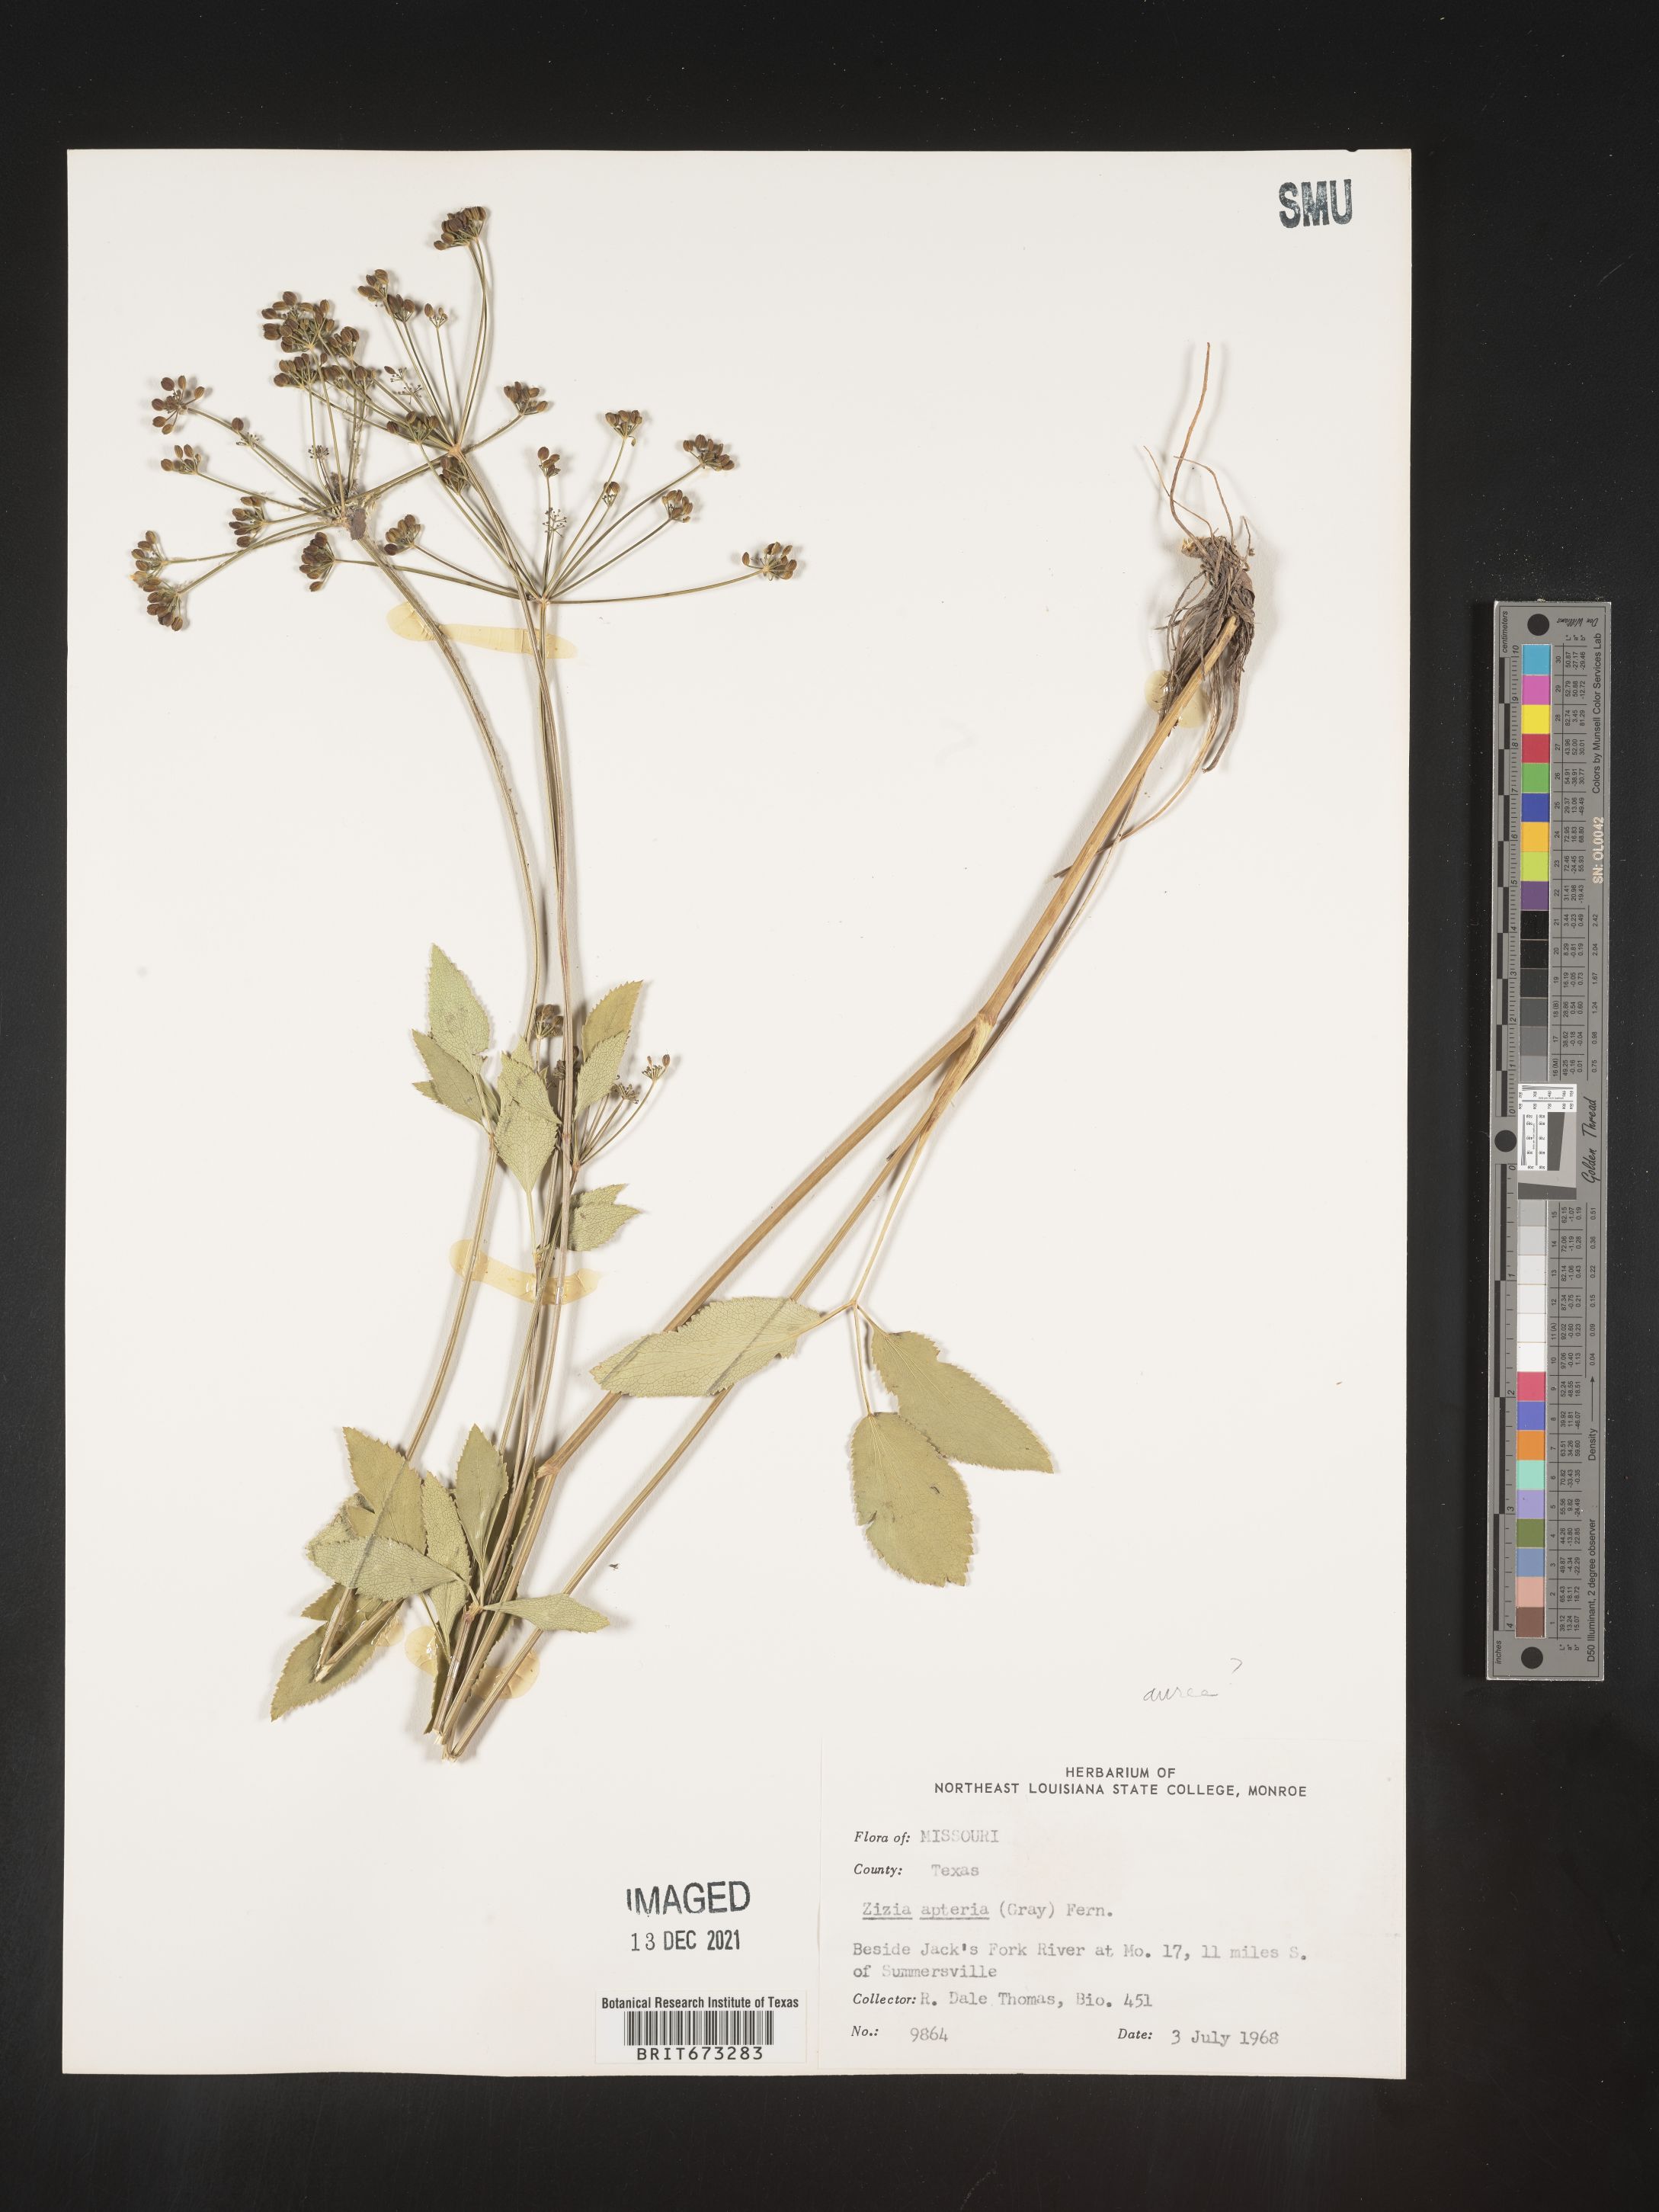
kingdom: Plantae
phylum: Tracheophyta
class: Magnoliopsida
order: Apiales
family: Apiaceae
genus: Zizia
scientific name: Zizia aptera
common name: Heart-leaved alexanders
